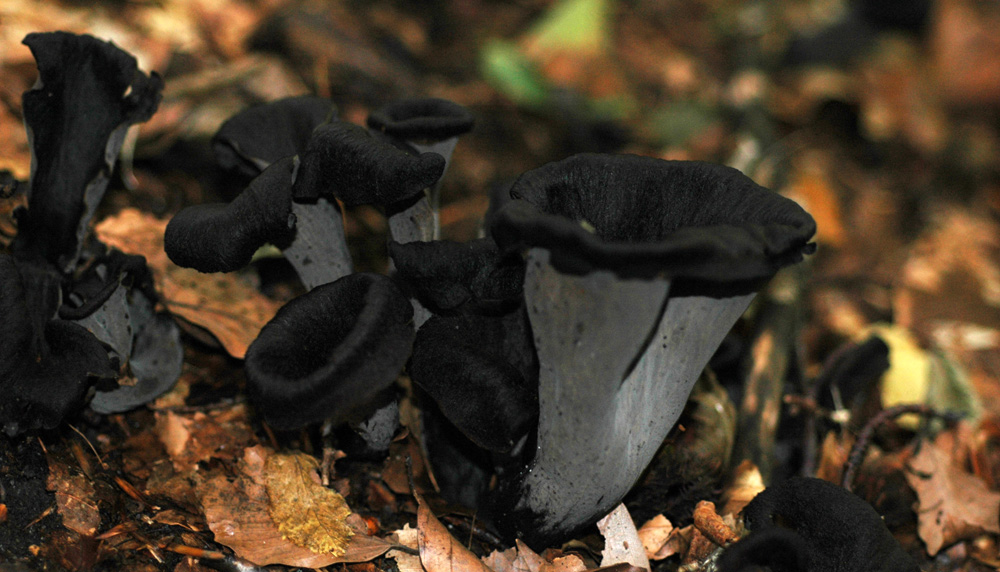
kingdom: Fungi
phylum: Basidiomycota
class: Agaricomycetes
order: Cantharellales
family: Hydnaceae
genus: Craterellus
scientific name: Craterellus cornucopioides
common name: trompetsvamp
